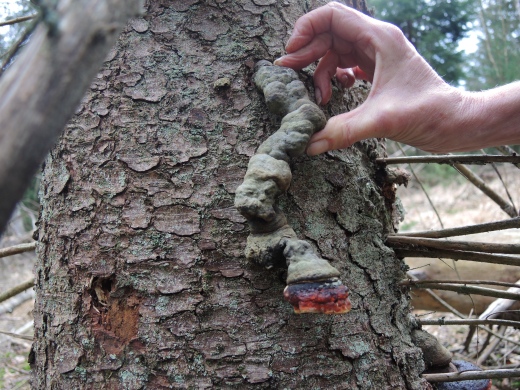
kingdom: Fungi
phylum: Basidiomycota
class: Agaricomycetes
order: Polyporales
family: Fomitopsidaceae
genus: Fomitopsis
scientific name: Fomitopsis pinicola
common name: randbæltet hovporesvamp
